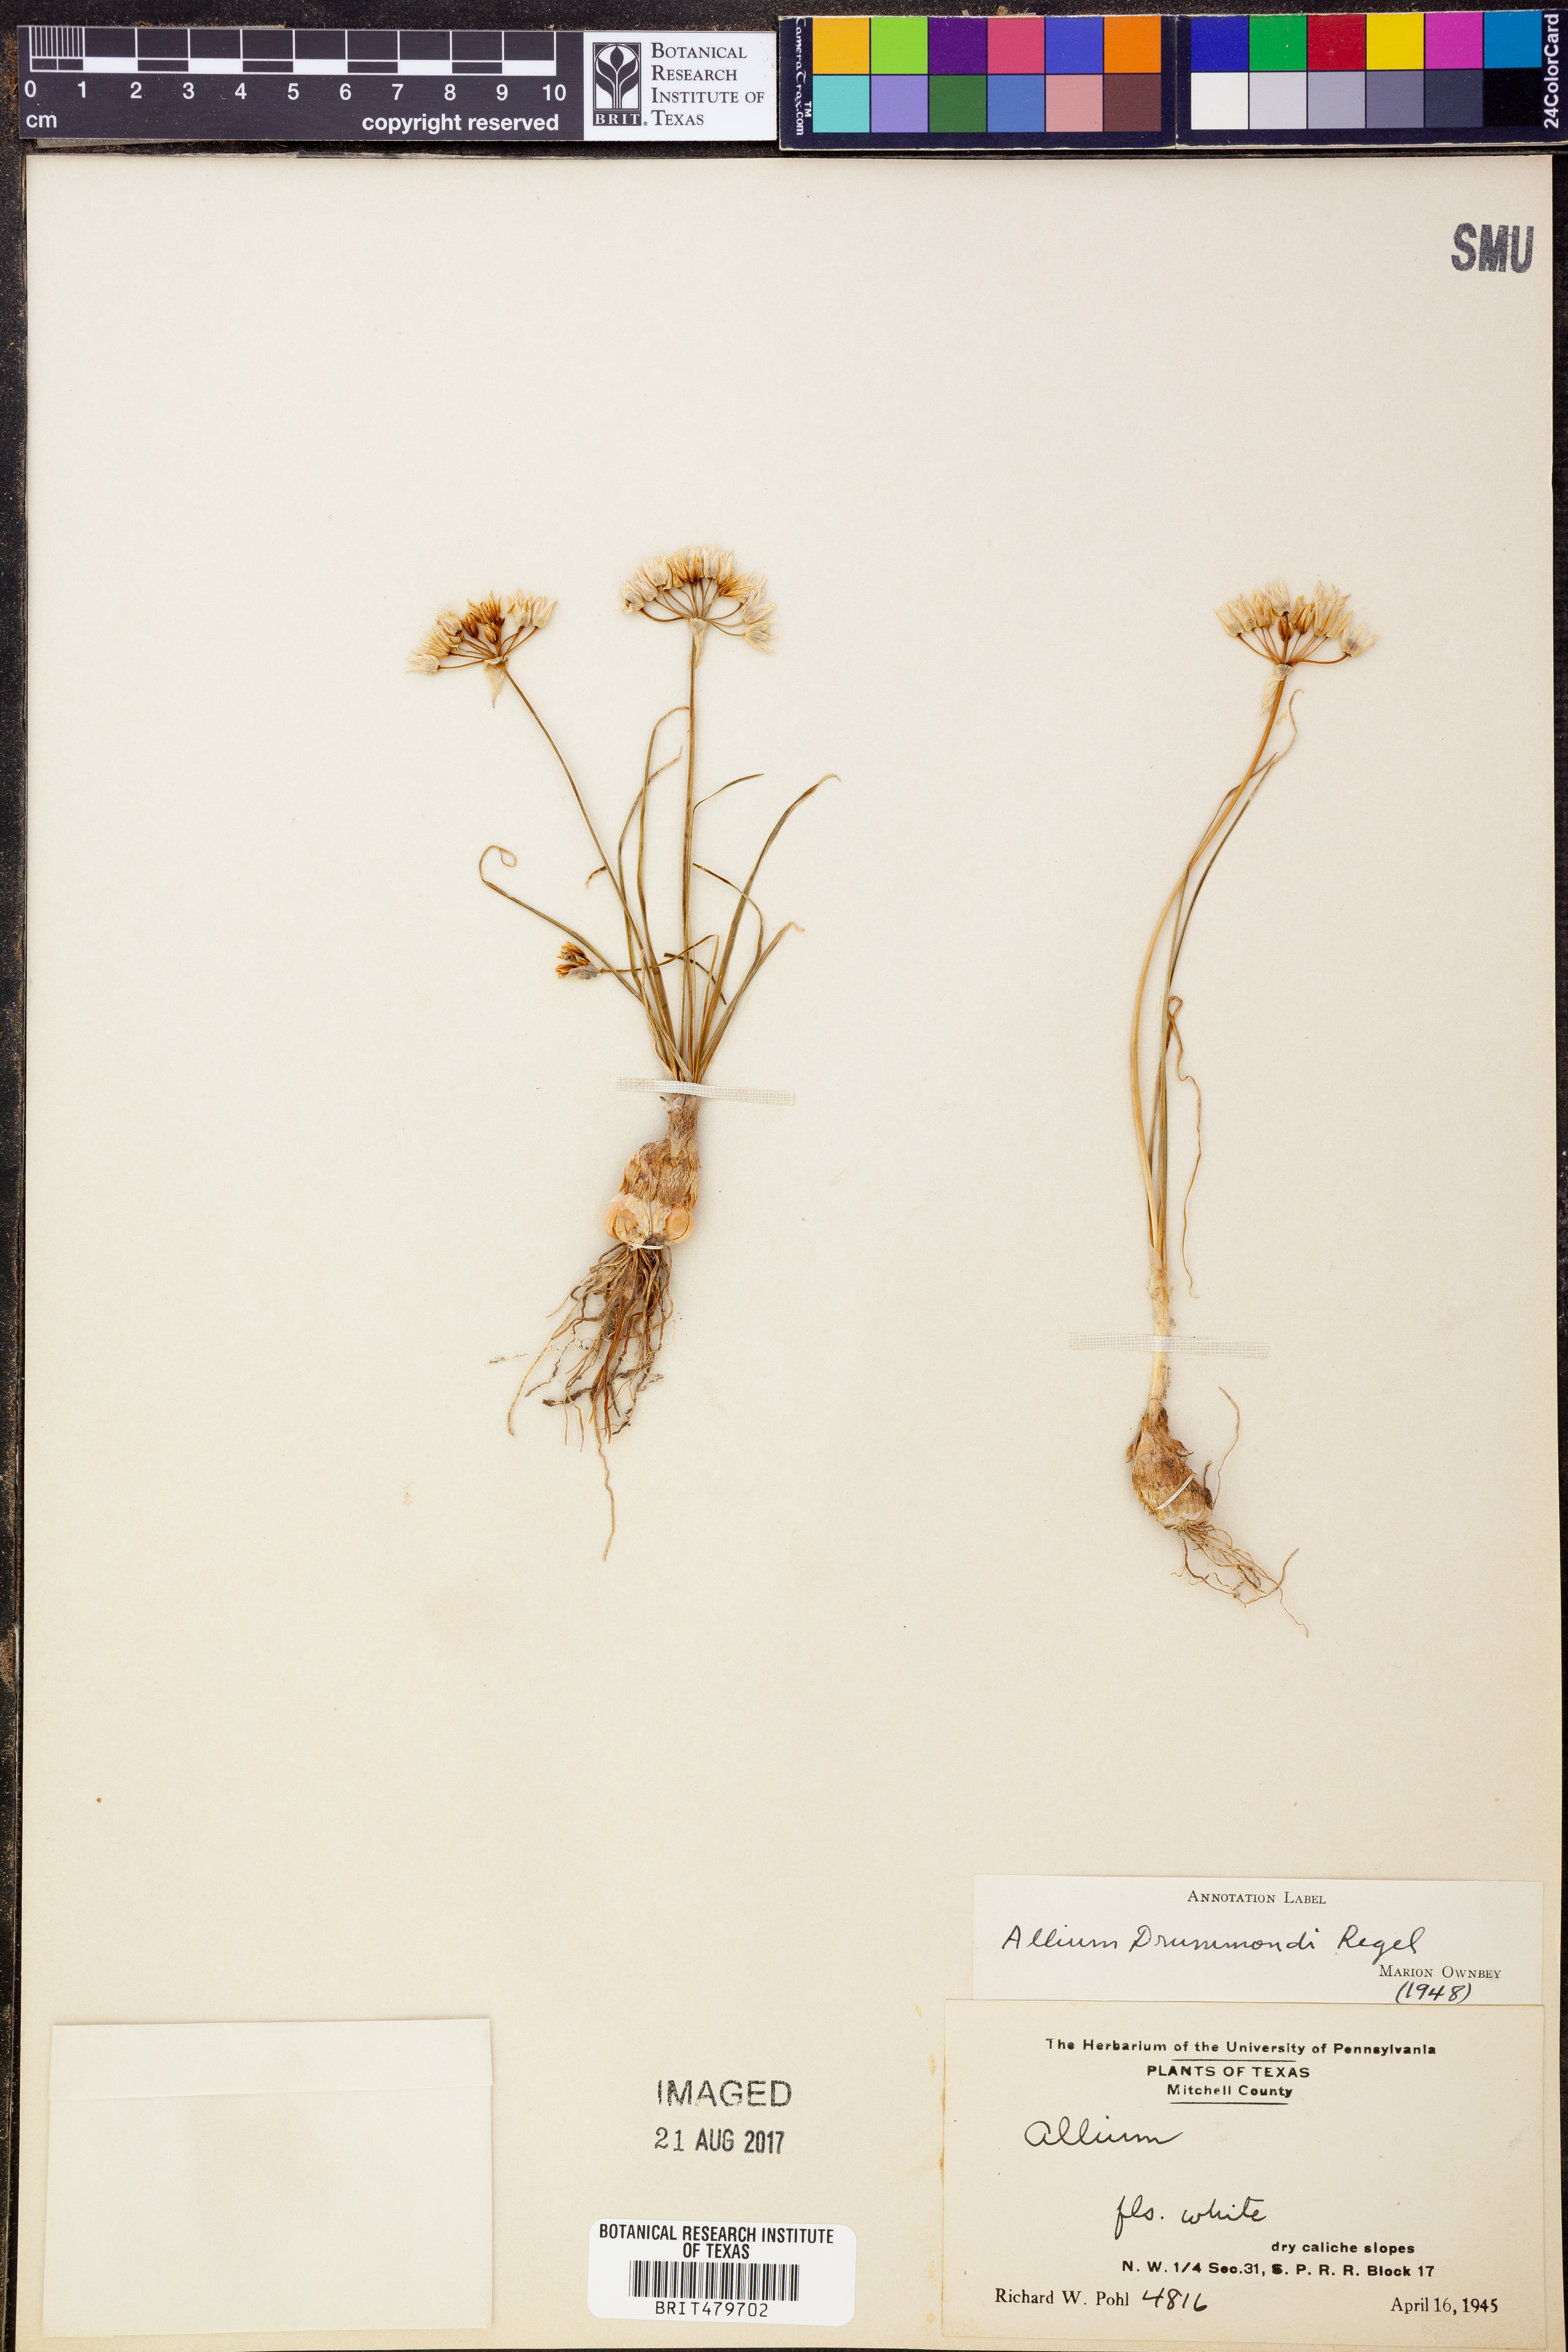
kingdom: Plantae
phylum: Tracheophyta
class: Liliopsida
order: Asparagales
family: Amaryllidaceae
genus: Allium
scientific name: Allium drummondii
